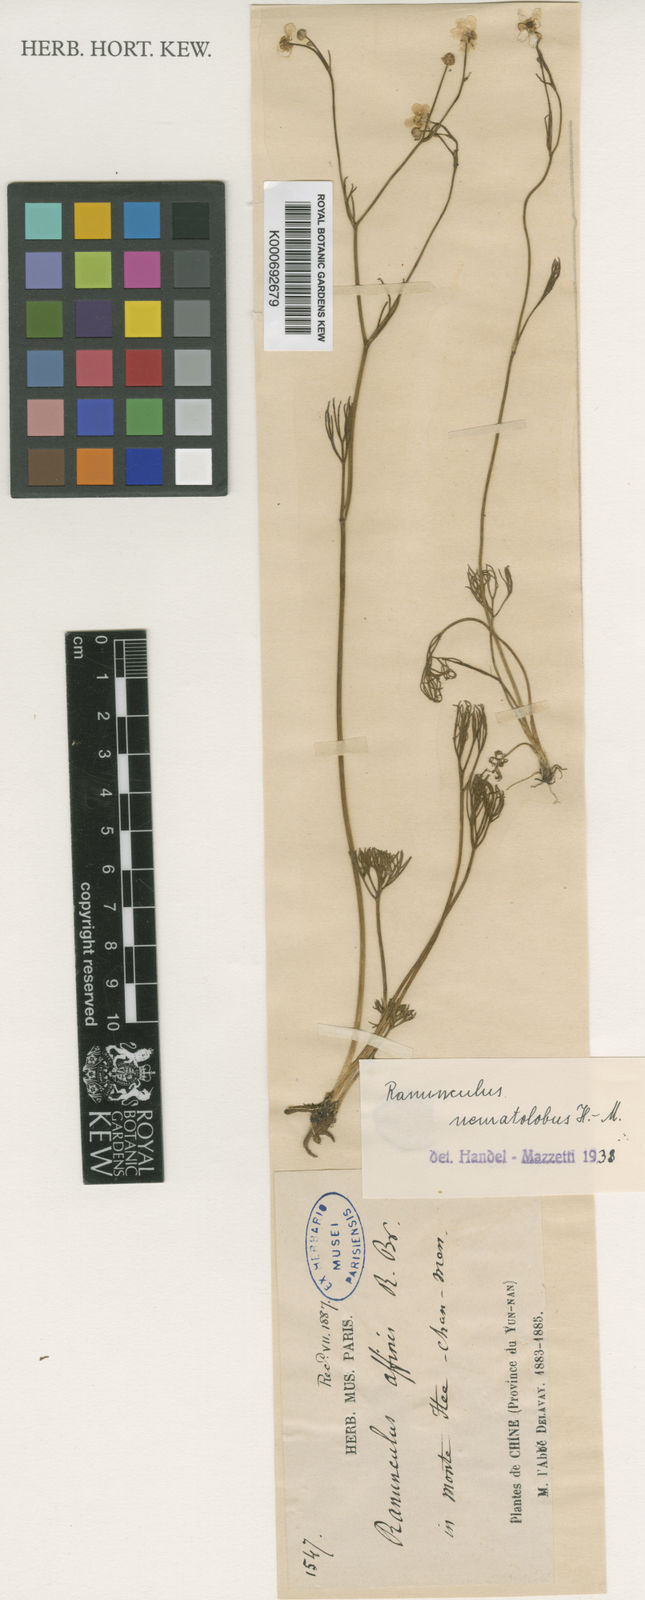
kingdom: Plantae
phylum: Tracheophyta
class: Magnoliopsida
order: Ranunculales
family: Ranunculaceae
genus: Ranunculus
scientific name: Ranunculus nematolobus
